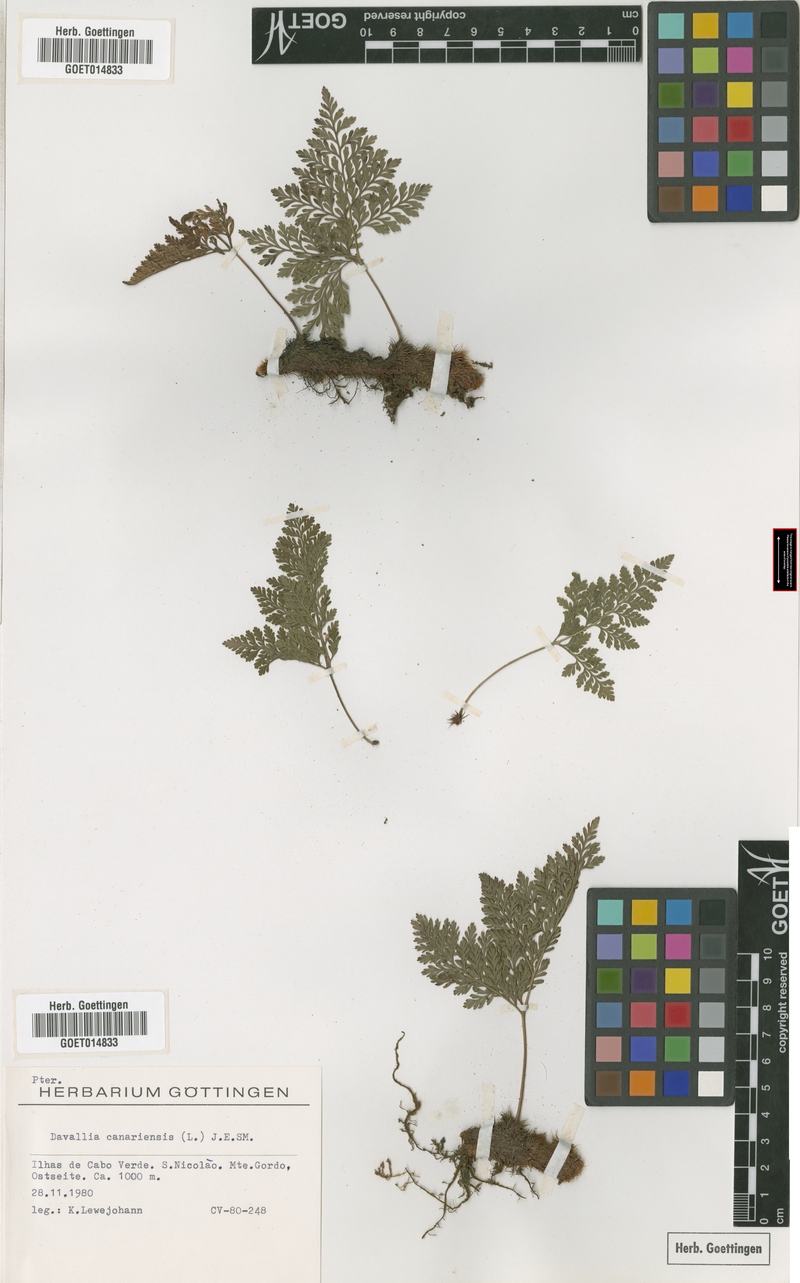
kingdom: Plantae
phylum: Tracheophyta
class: Polypodiopsida
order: Polypodiales
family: Davalliaceae
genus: Davallia
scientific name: Davallia canariensis
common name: Hare's-foot fern
